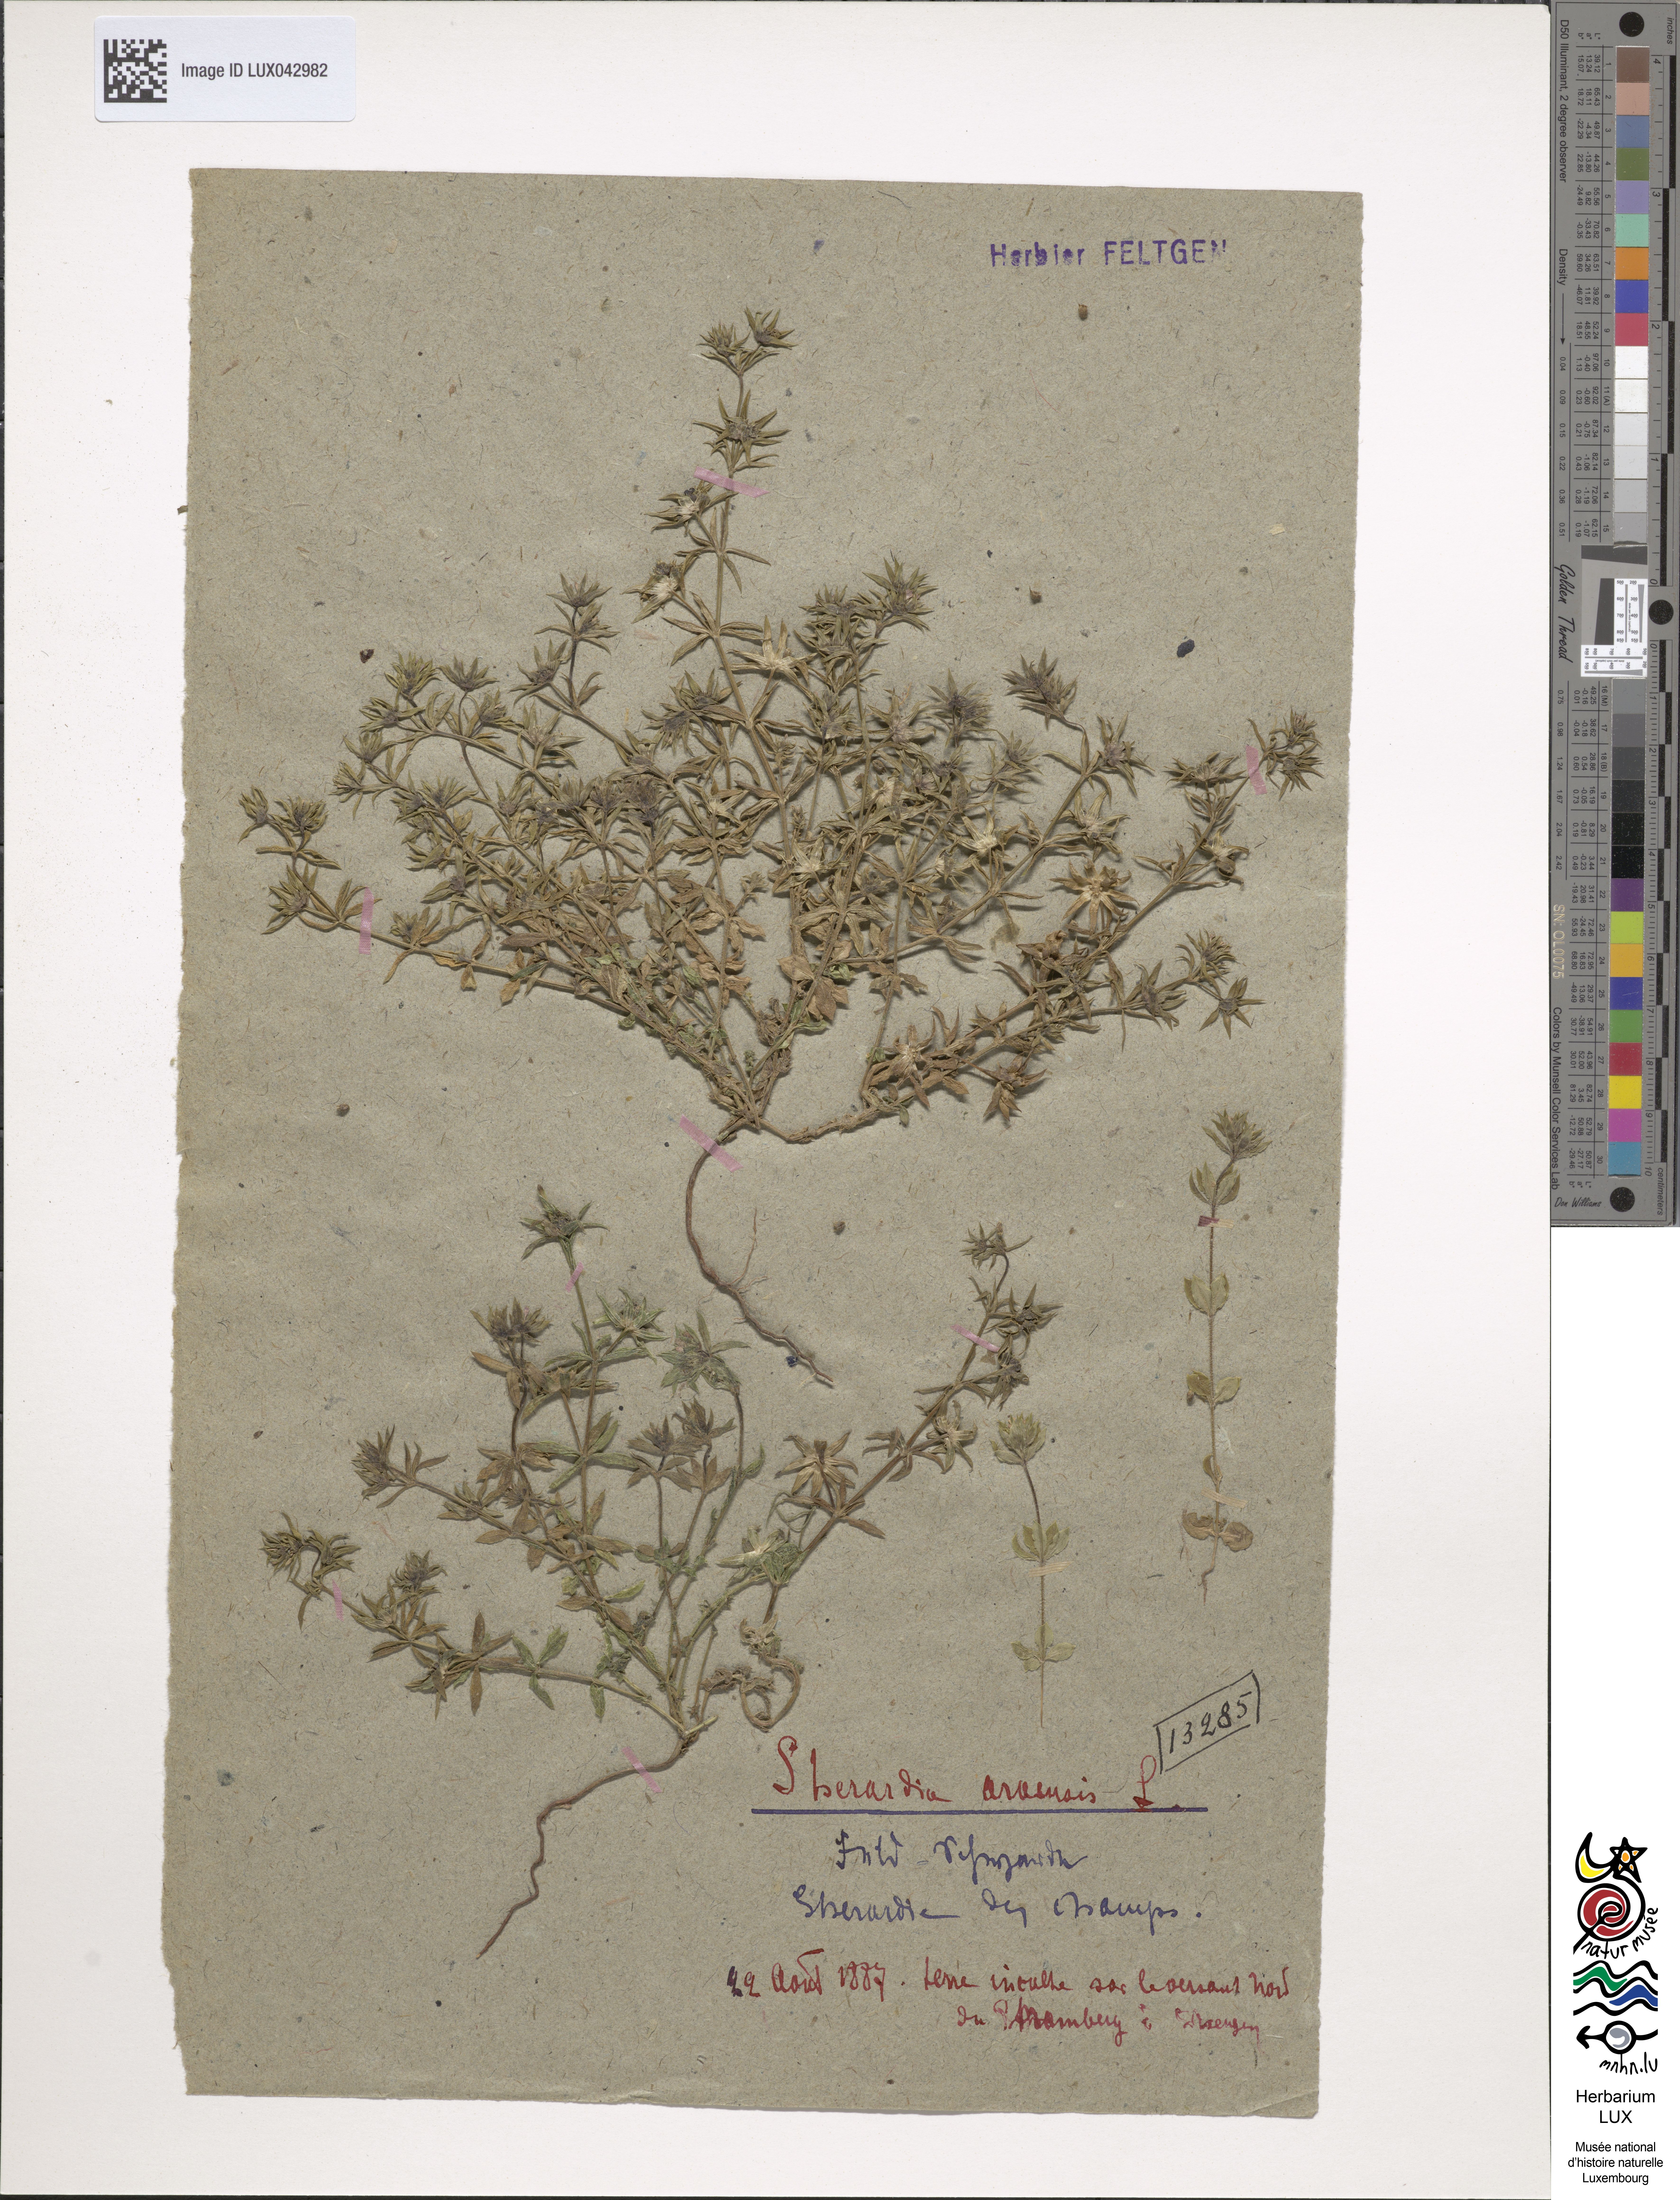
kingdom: Plantae
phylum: Tracheophyta
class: Magnoliopsida
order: Gentianales
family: Rubiaceae
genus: Sherardia
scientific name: Sherardia arvensis
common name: Field madder
